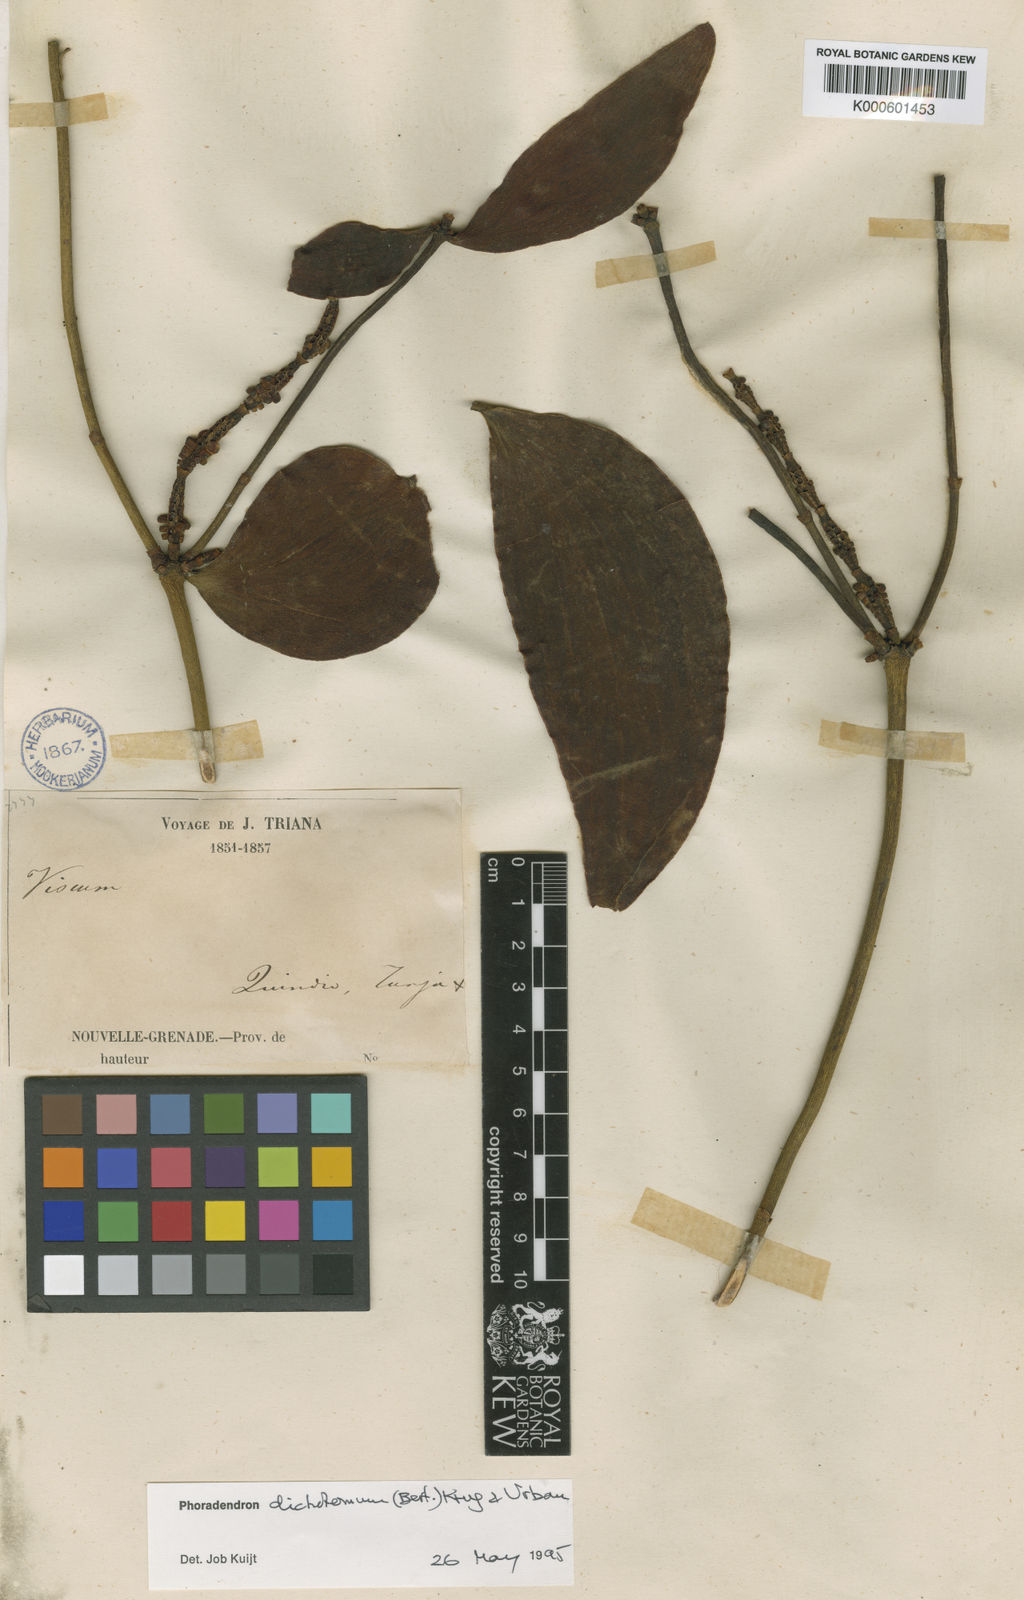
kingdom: Plantae
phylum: Tracheophyta
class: Magnoliopsida
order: Santalales
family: Viscaceae
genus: Phoradendron
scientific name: Phoradendron
